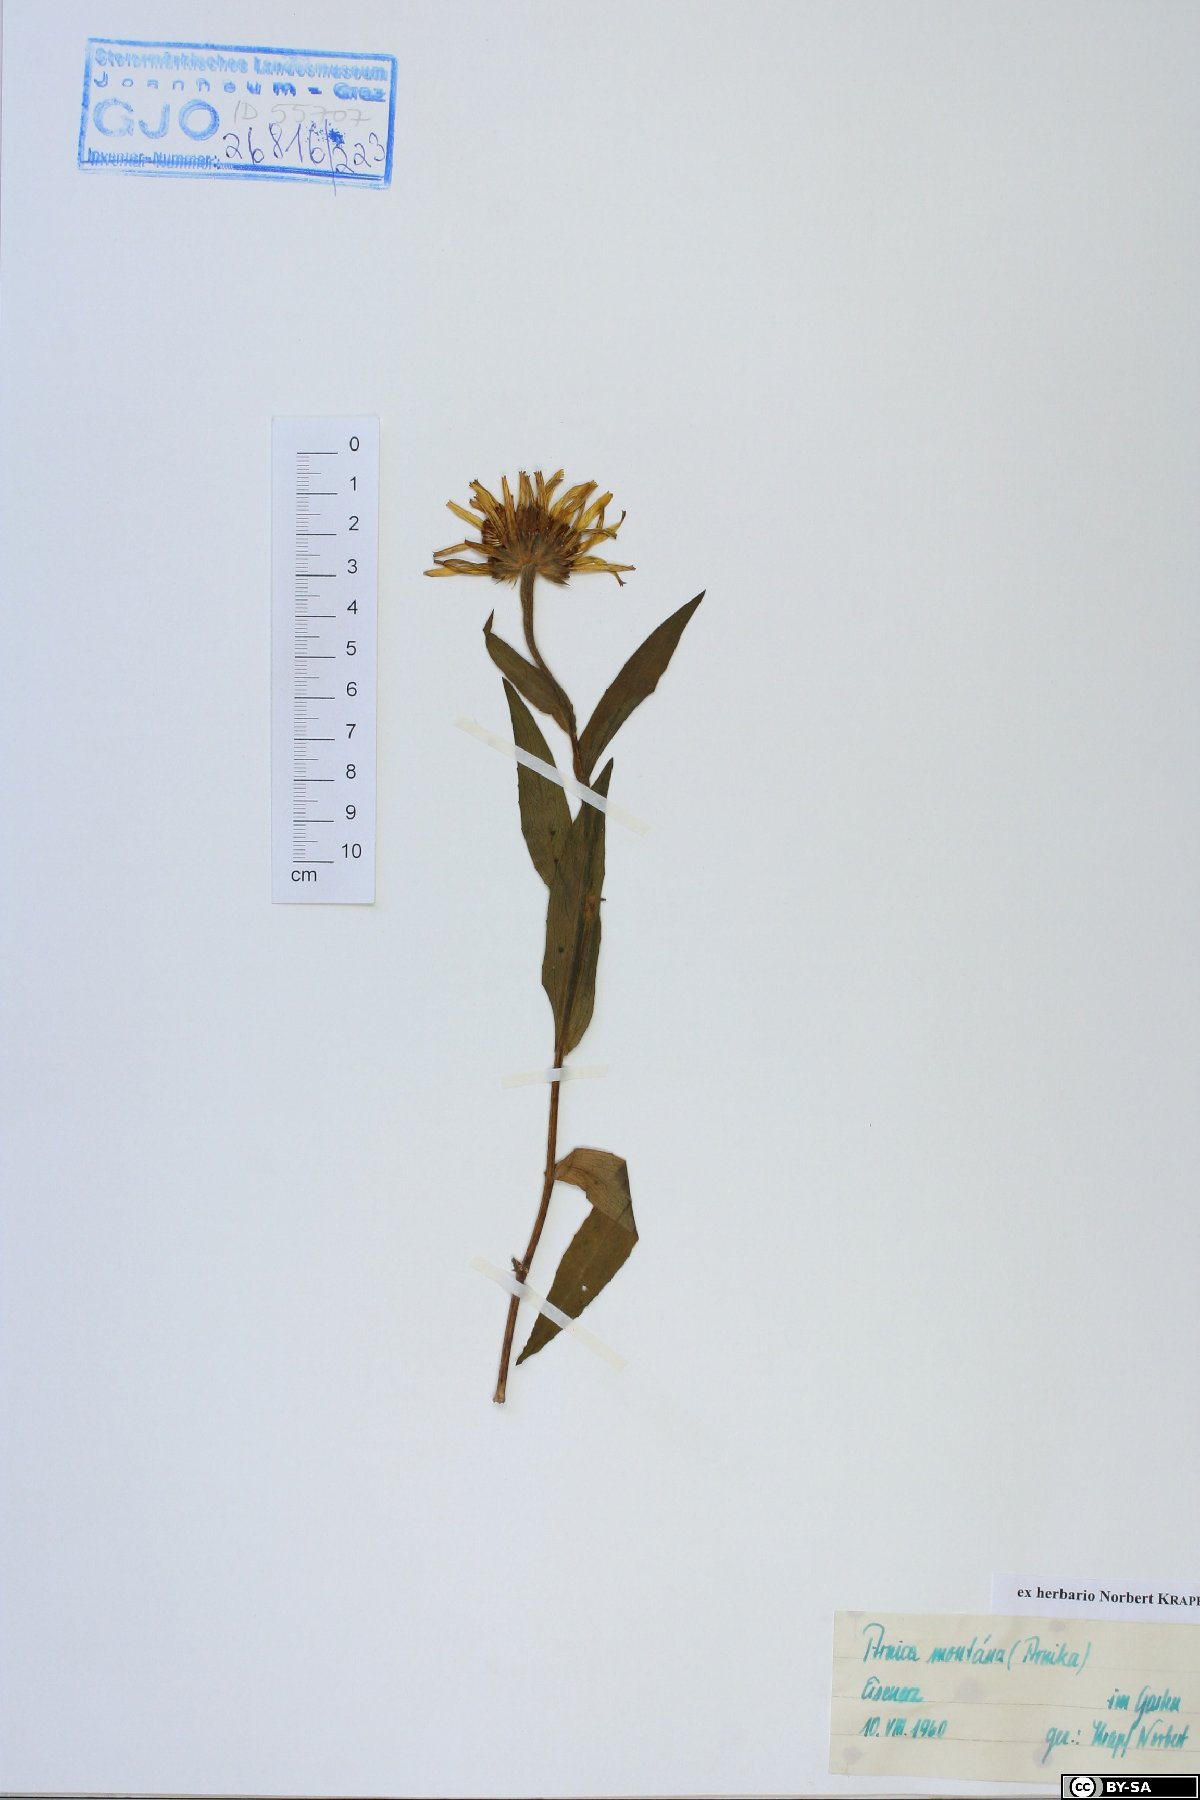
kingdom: Plantae
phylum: Tracheophyta
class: Magnoliopsida
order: Asterales
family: Asteraceae
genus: Arnica
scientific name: Arnica montana
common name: Leopard's bane
